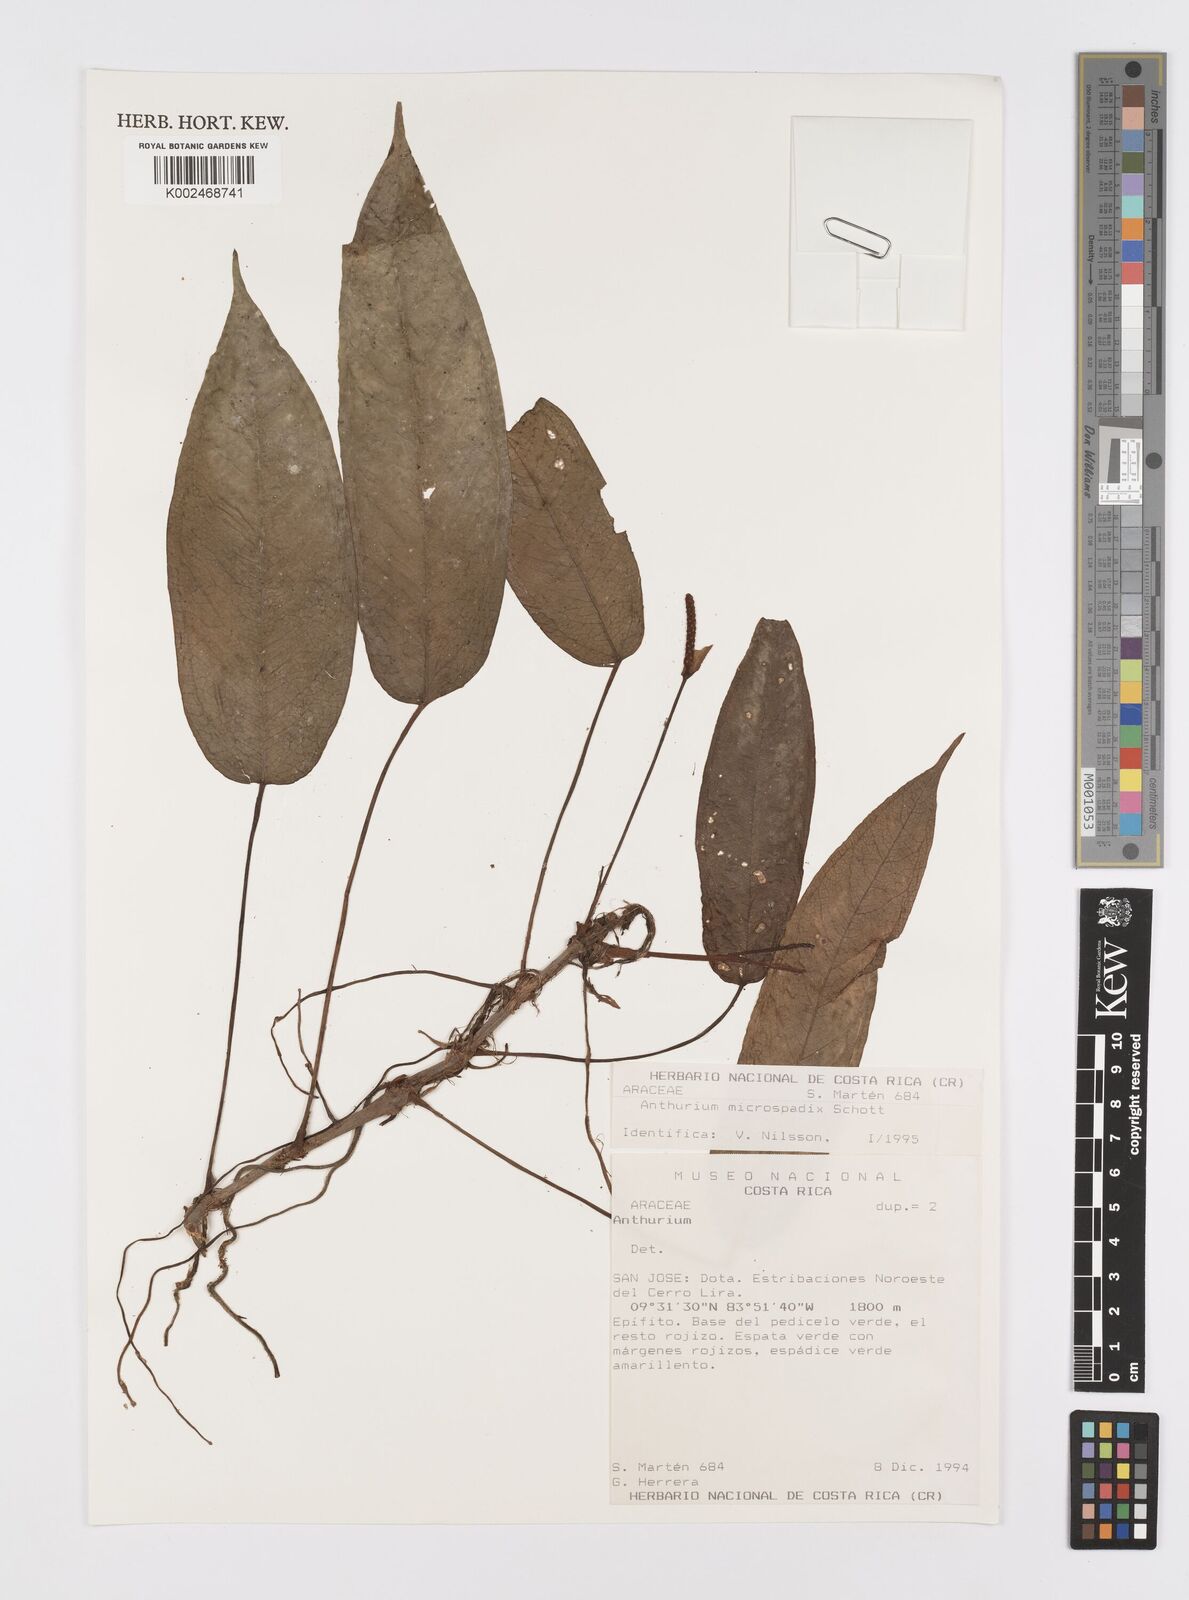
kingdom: Plantae
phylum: Tracheophyta
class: Liliopsida
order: Alismatales
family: Araceae
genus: Anthurium
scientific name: Anthurium microspadix
